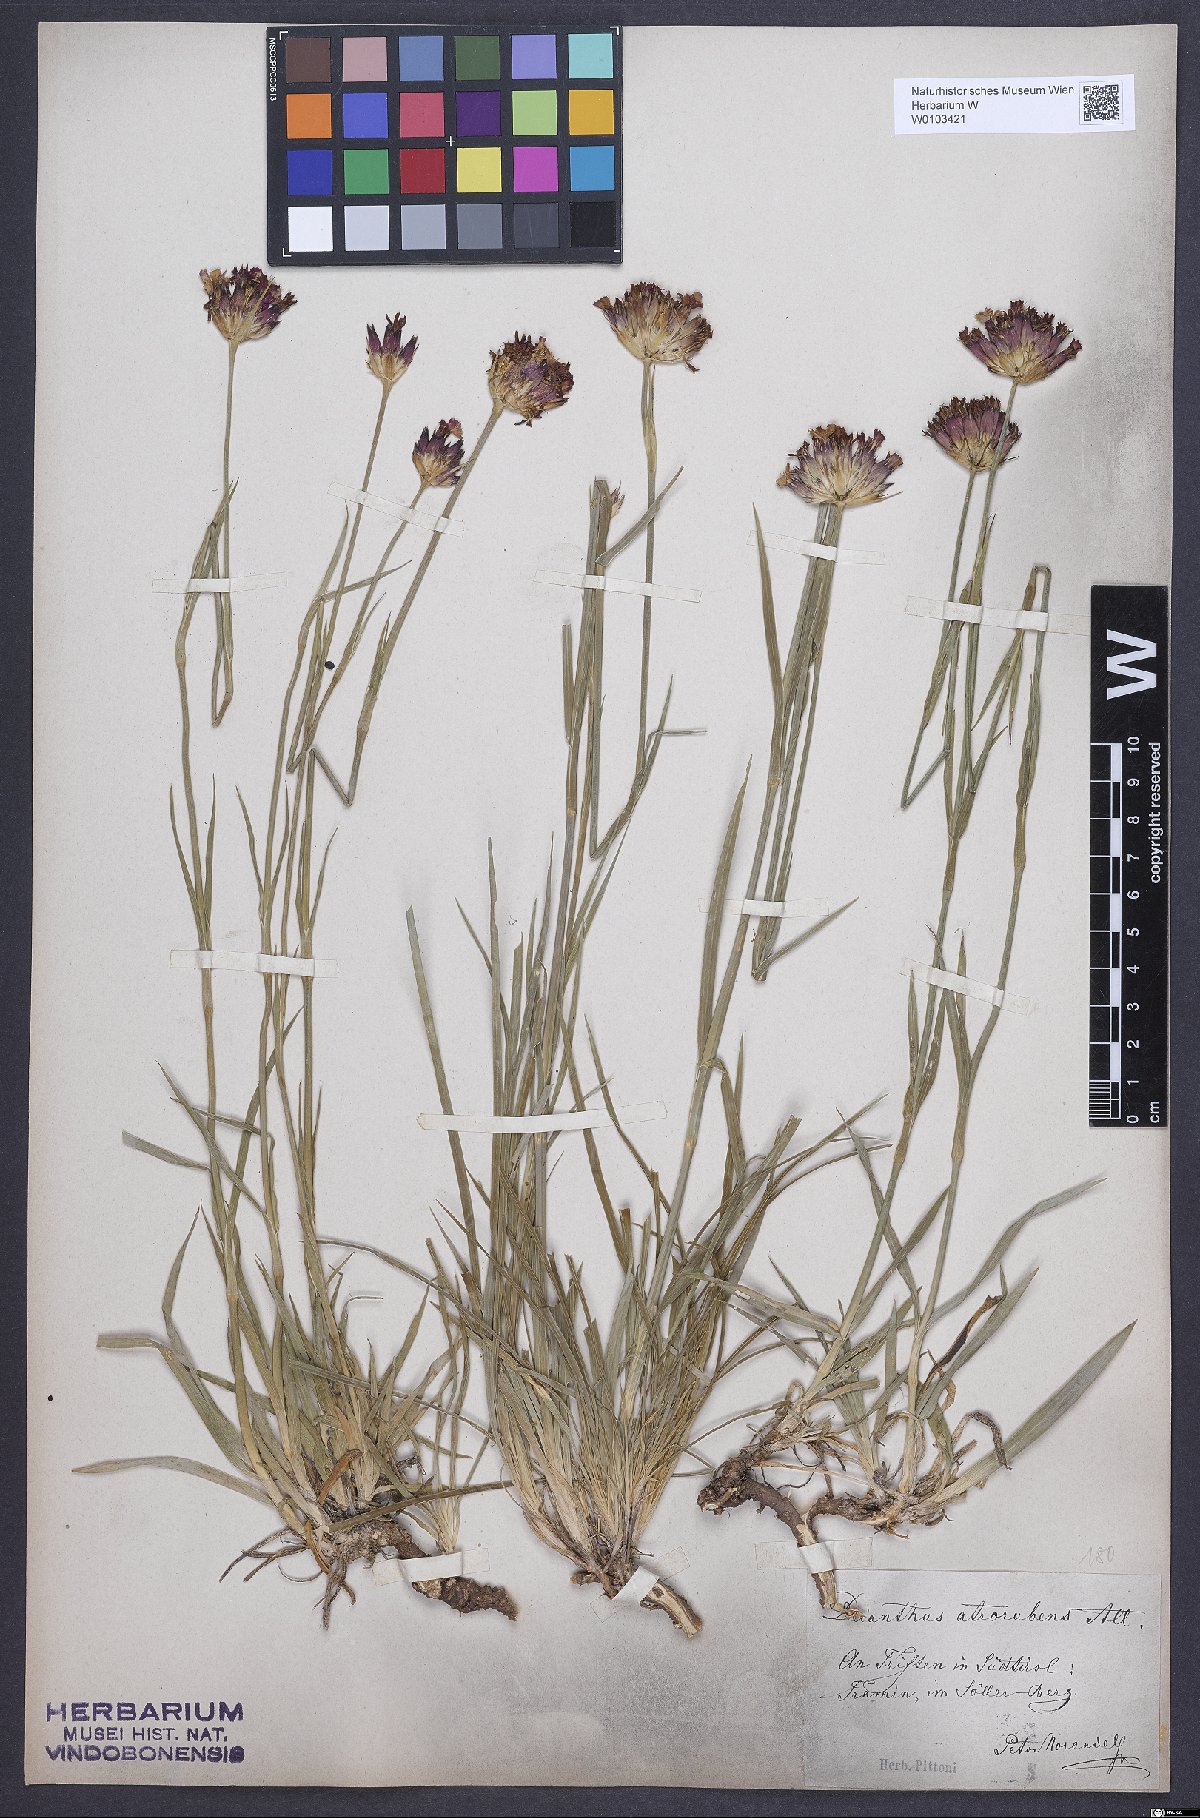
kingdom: Plantae
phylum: Tracheophyta
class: Magnoliopsida
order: Caryophyllales
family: Caryophyllaceae
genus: Dianthus
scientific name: Dianthus carthusianorum
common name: Carthusian pink
